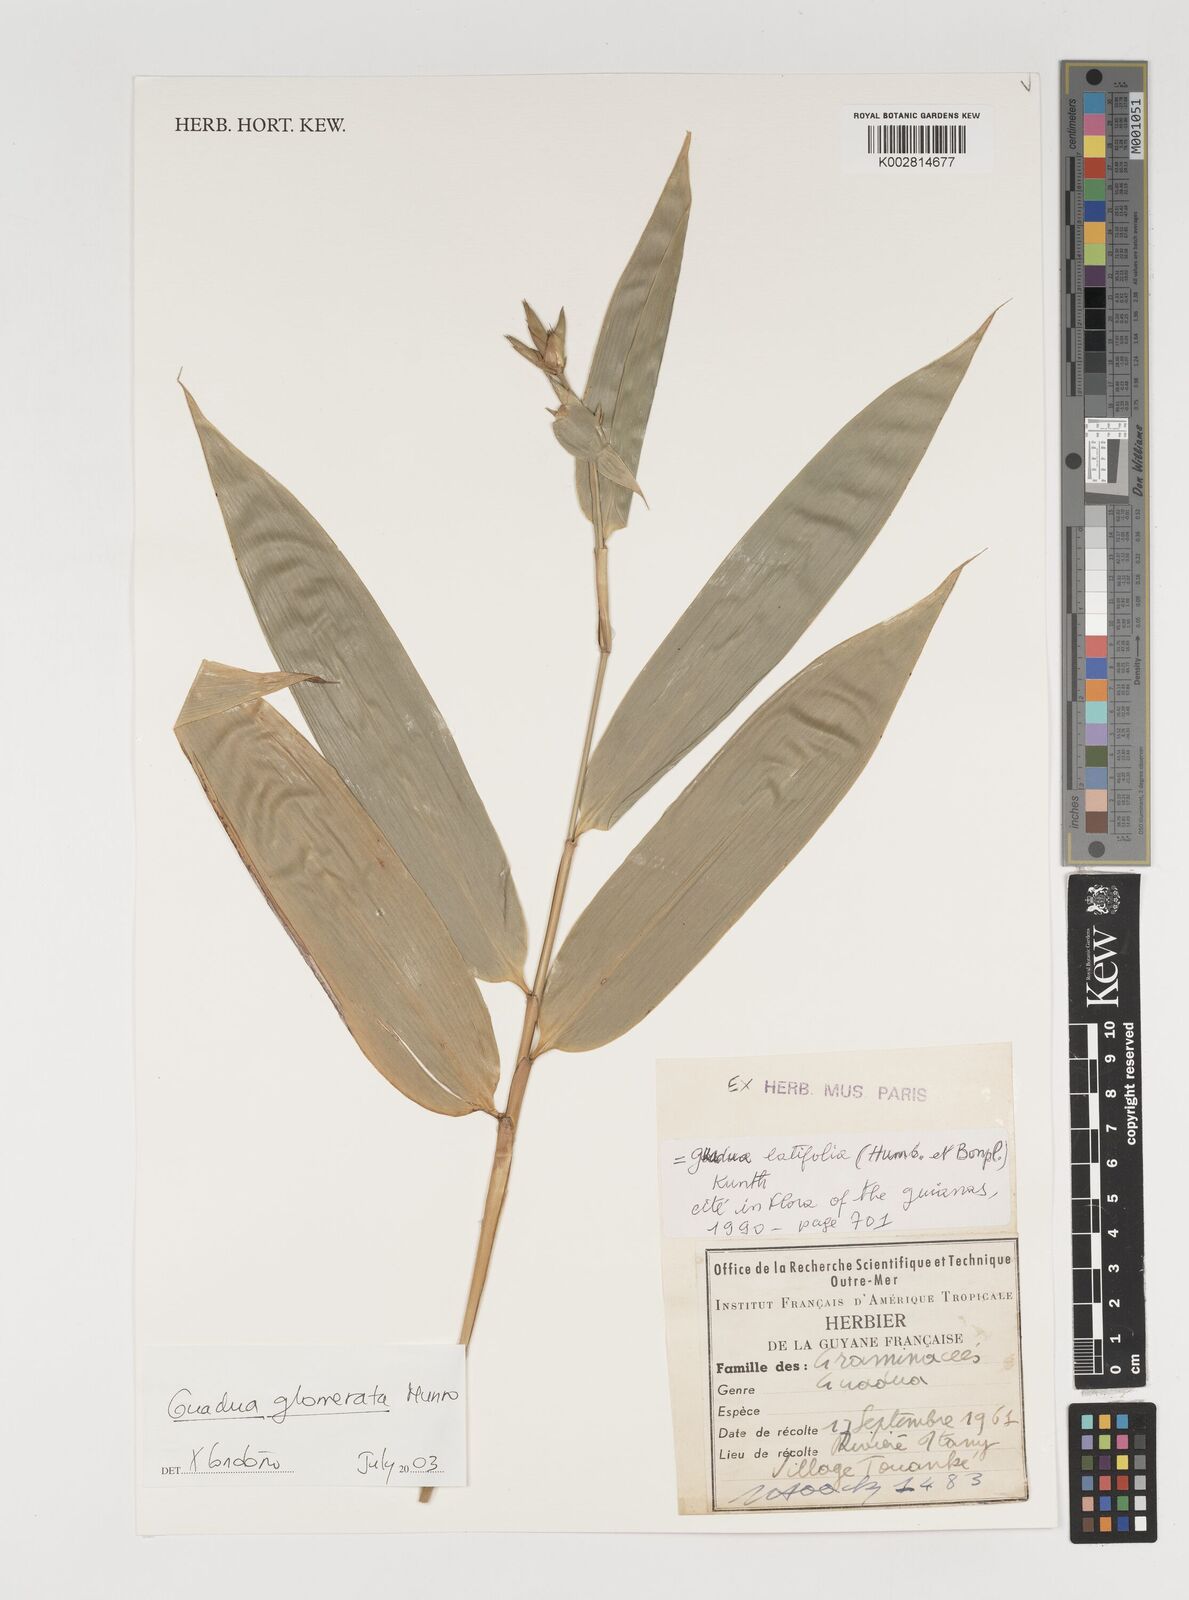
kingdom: Plantae
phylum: Tracheophyta
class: Liliopsida
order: Poales
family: Poaceae
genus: Guadua
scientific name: Guadua glomerata
